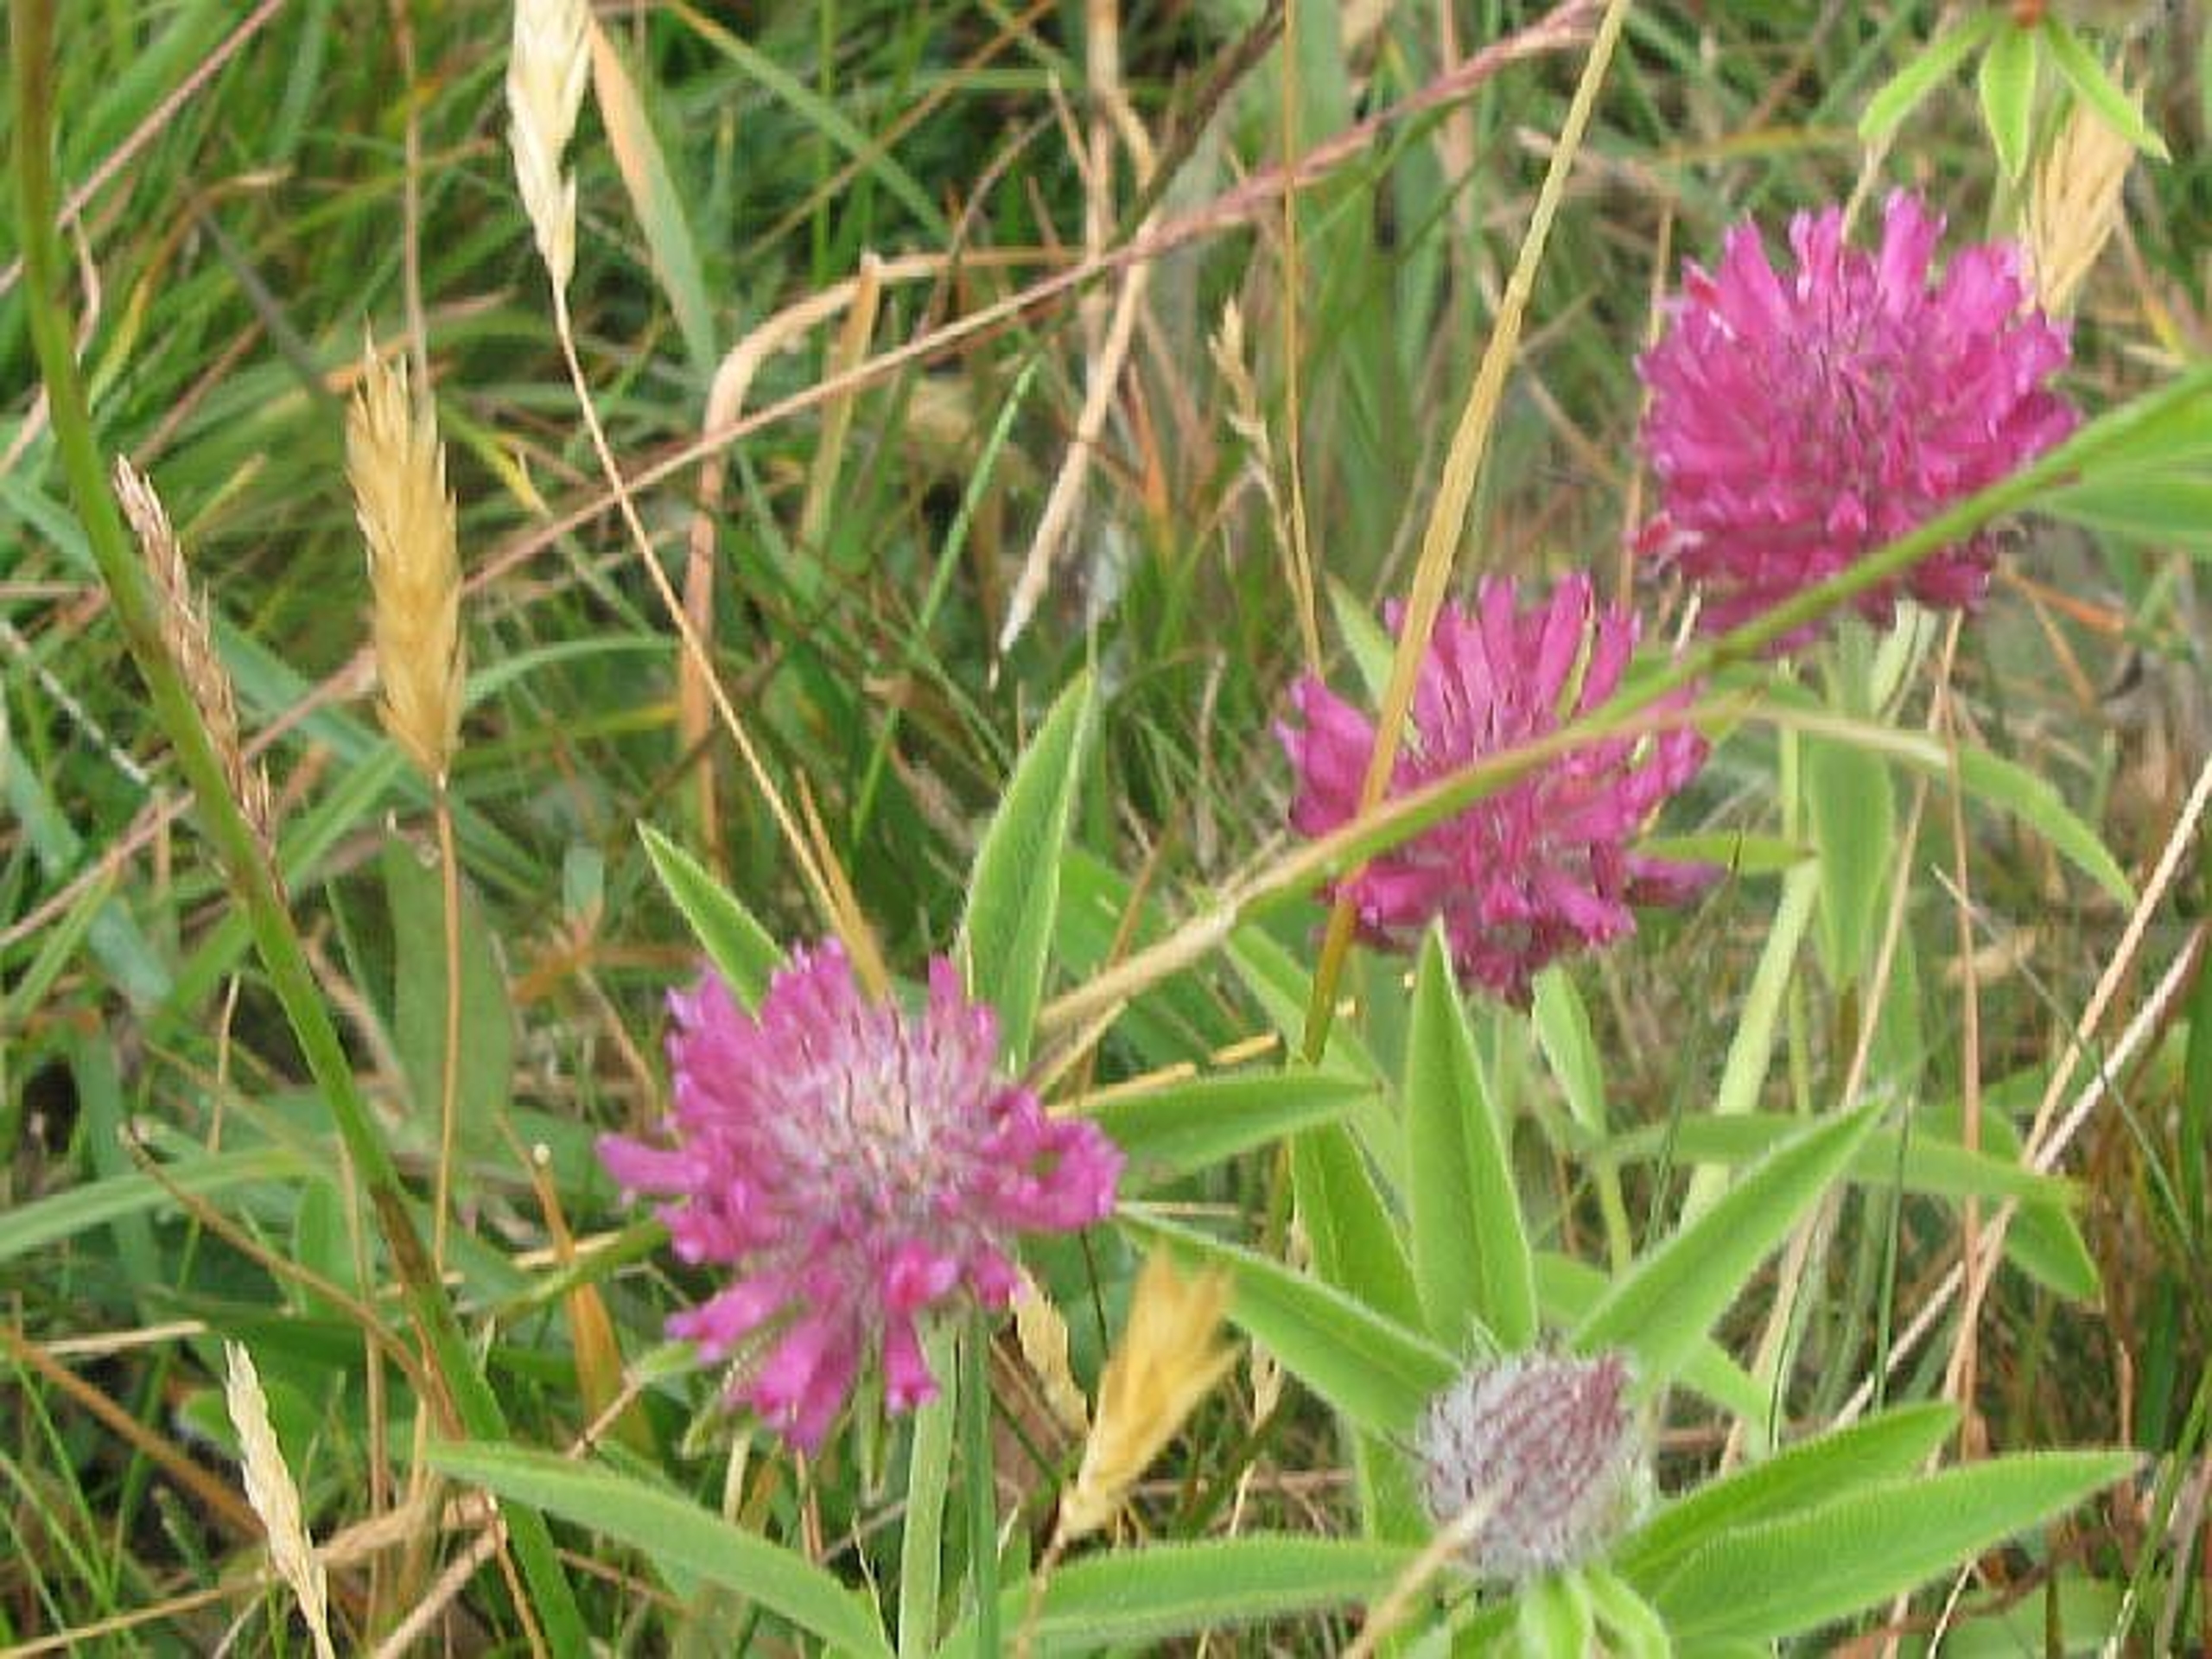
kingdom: Plantae
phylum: Tracheophyta
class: Magnoliopsida
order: Fabales
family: Fabaceae
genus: Trifolium
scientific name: Trifolium alpestre
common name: Skov-kløver
